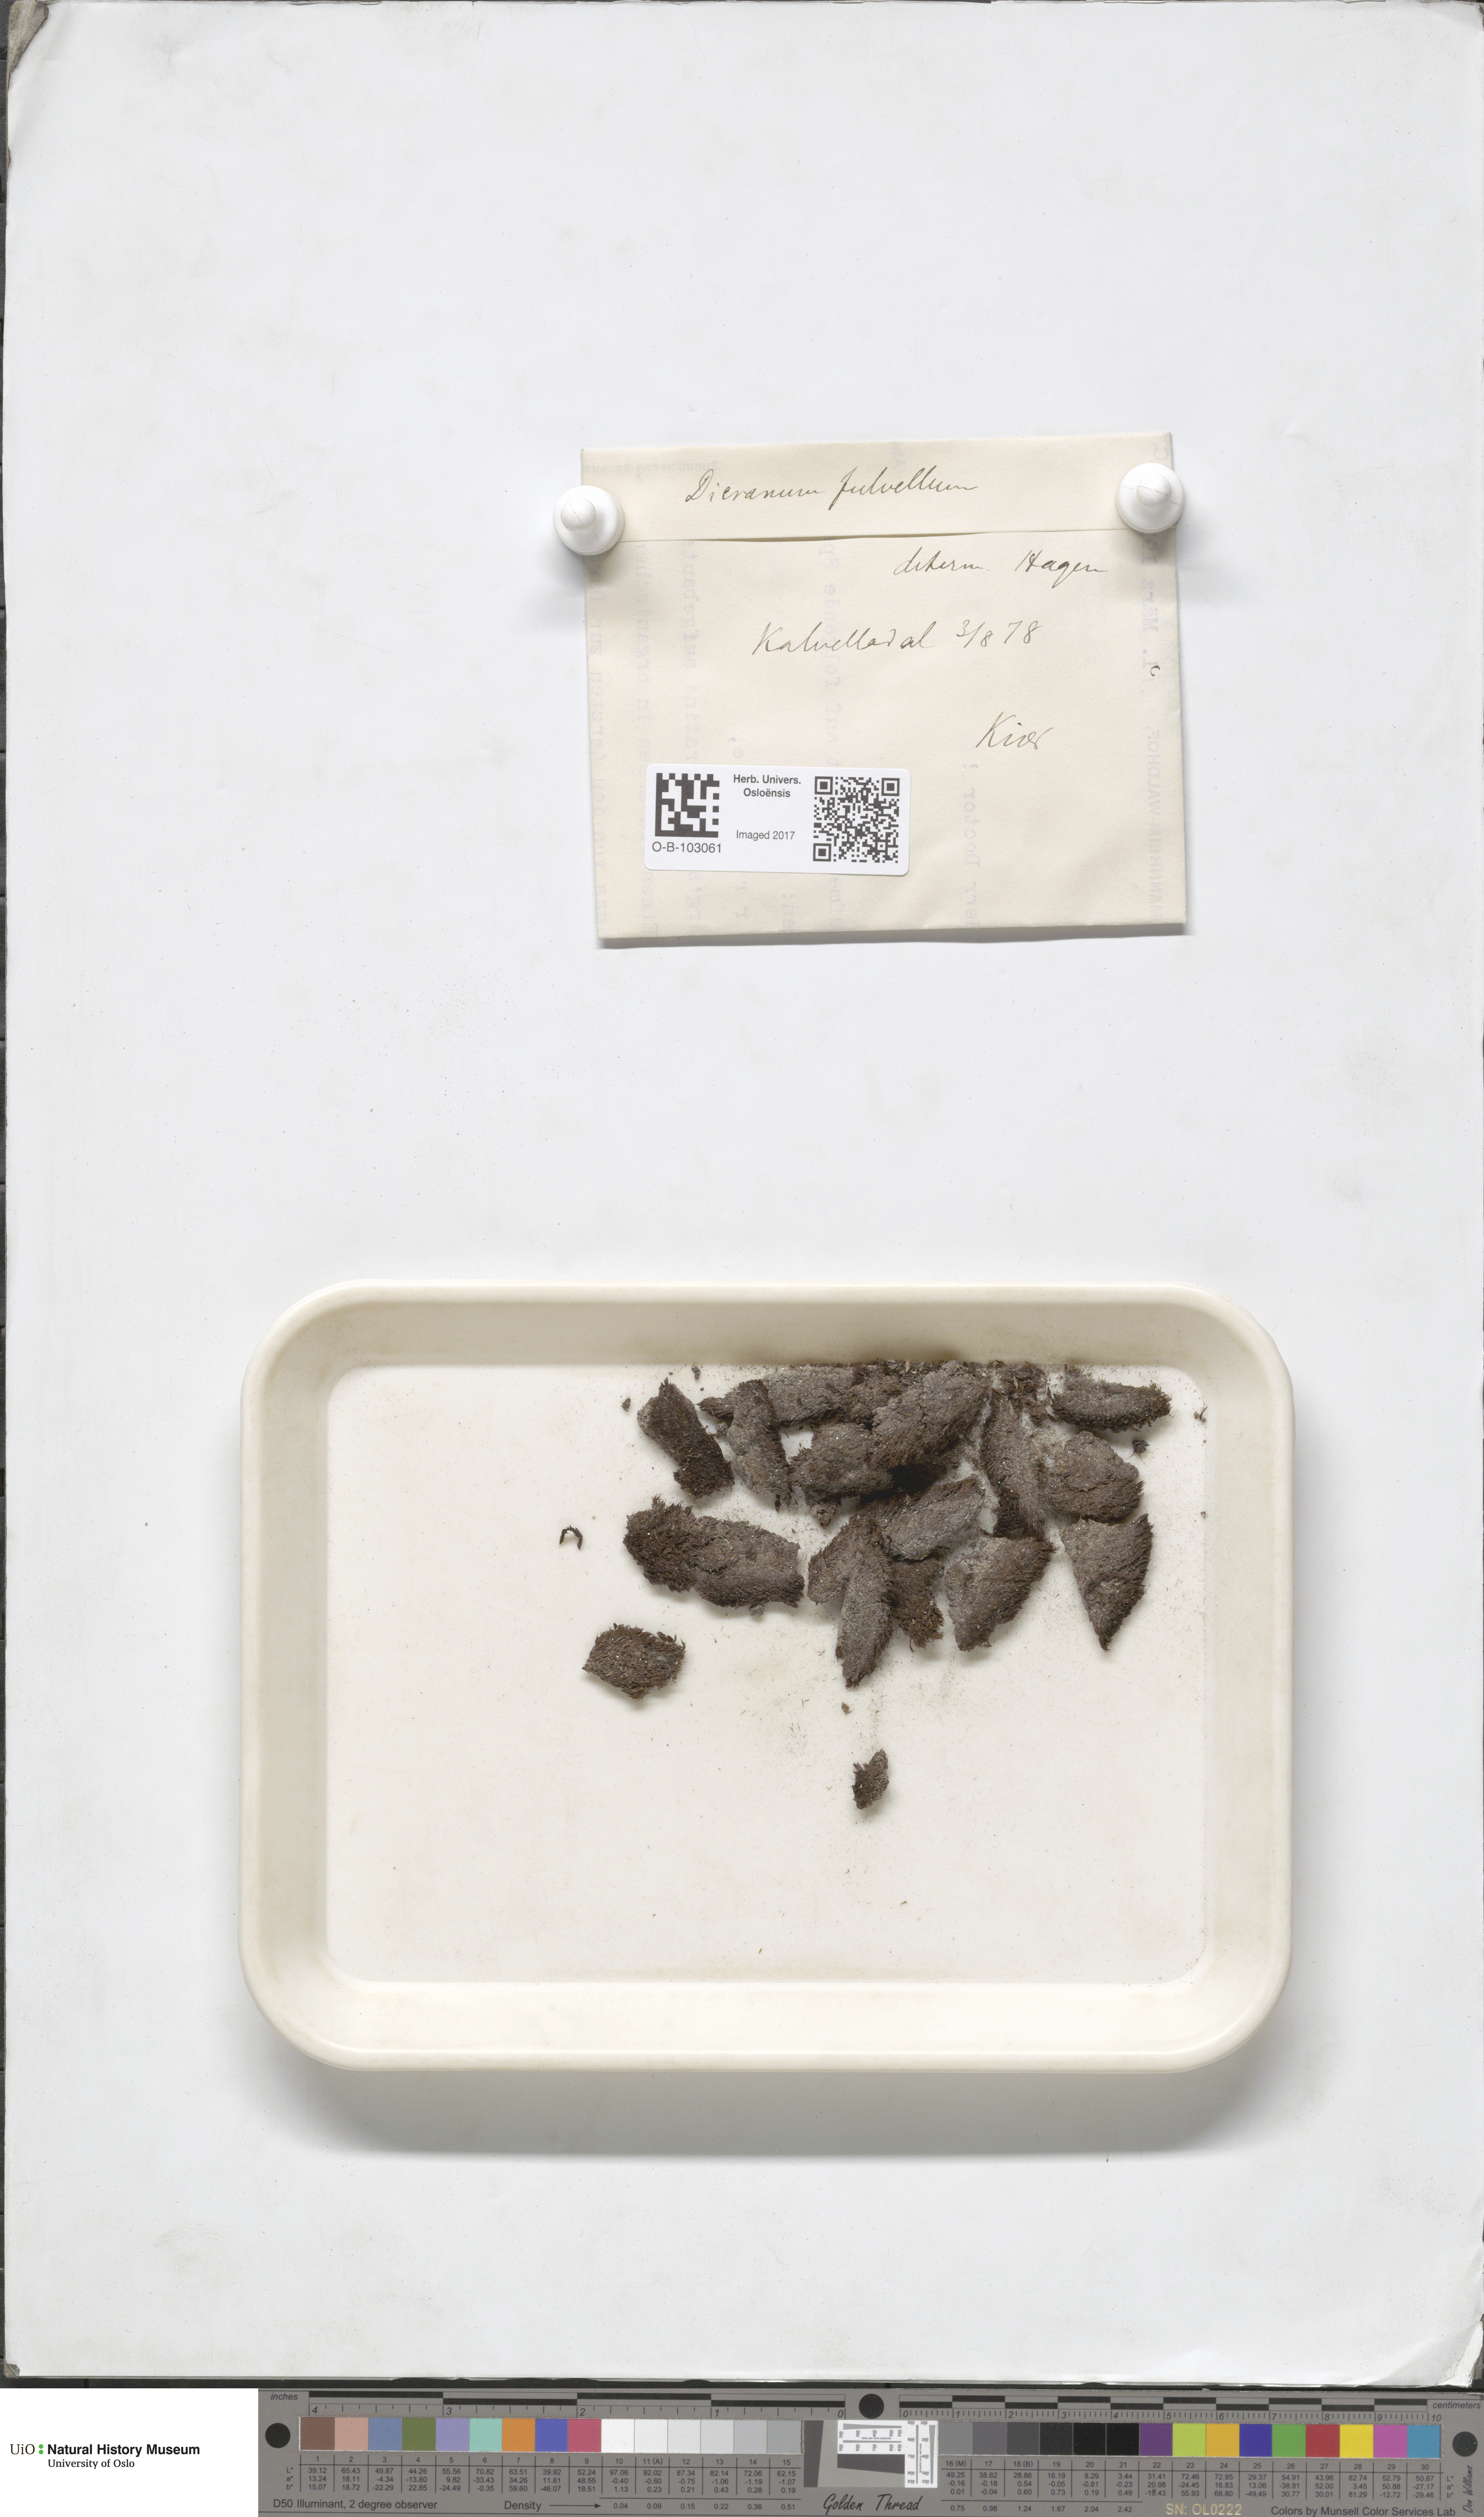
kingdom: Plantae
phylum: Bryophyta
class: Bryopsida
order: Dicranales
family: Rhabdoweisiaceae
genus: Arctoa
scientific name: Arctoa fulvella
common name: Tawny fork moss
